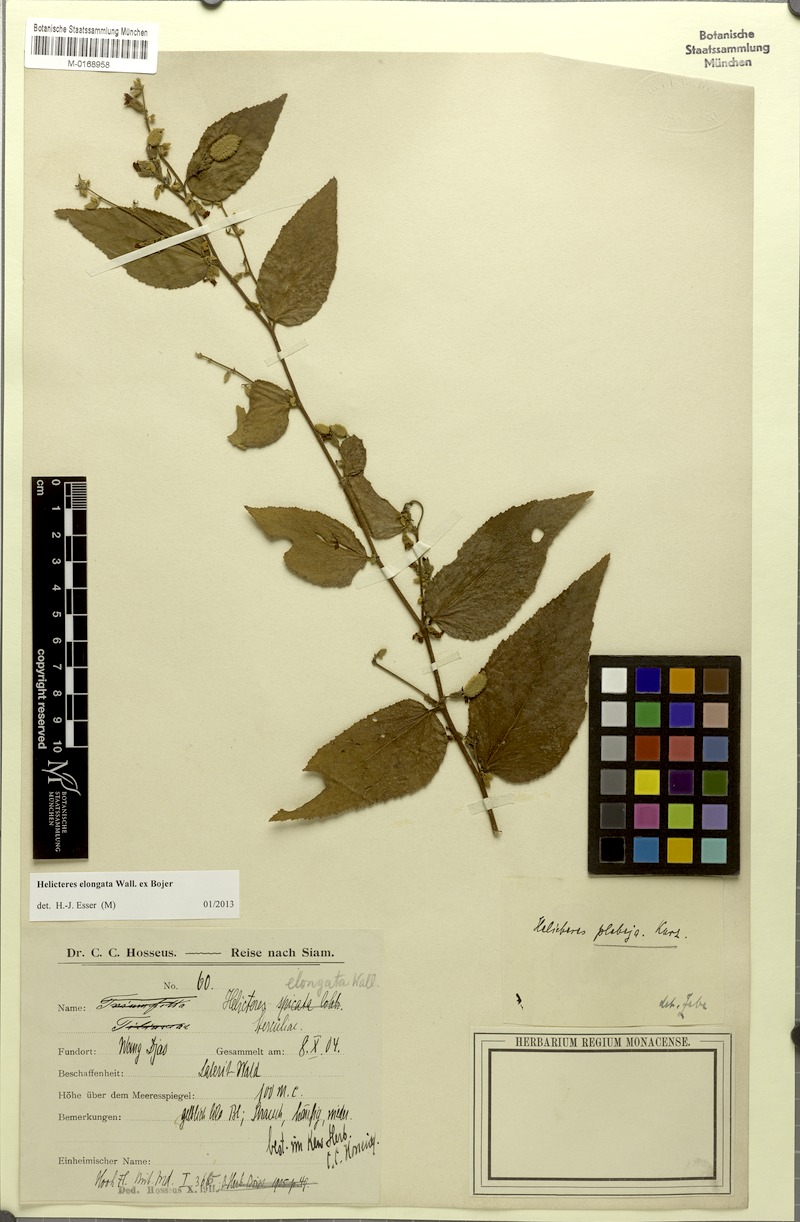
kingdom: Plantae
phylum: Tracheophyta
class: Magnoliopsida
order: Malvales
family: Malvaceae
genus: Helicteres
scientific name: Helicteres elongata
